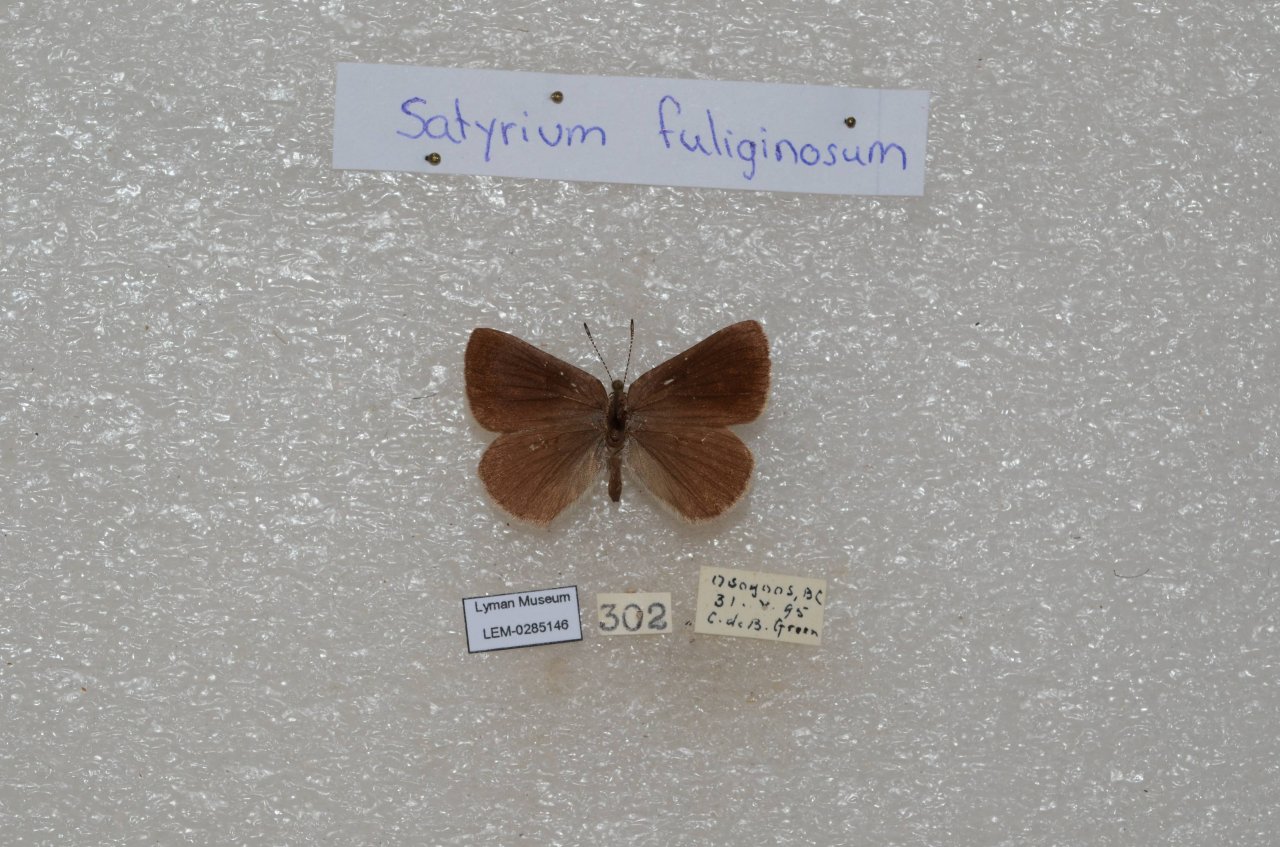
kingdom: Animalia
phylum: Arthropoda
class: Insecta
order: Lepidoptera
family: Lycaenidae
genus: Satyrium
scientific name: Satyrium
